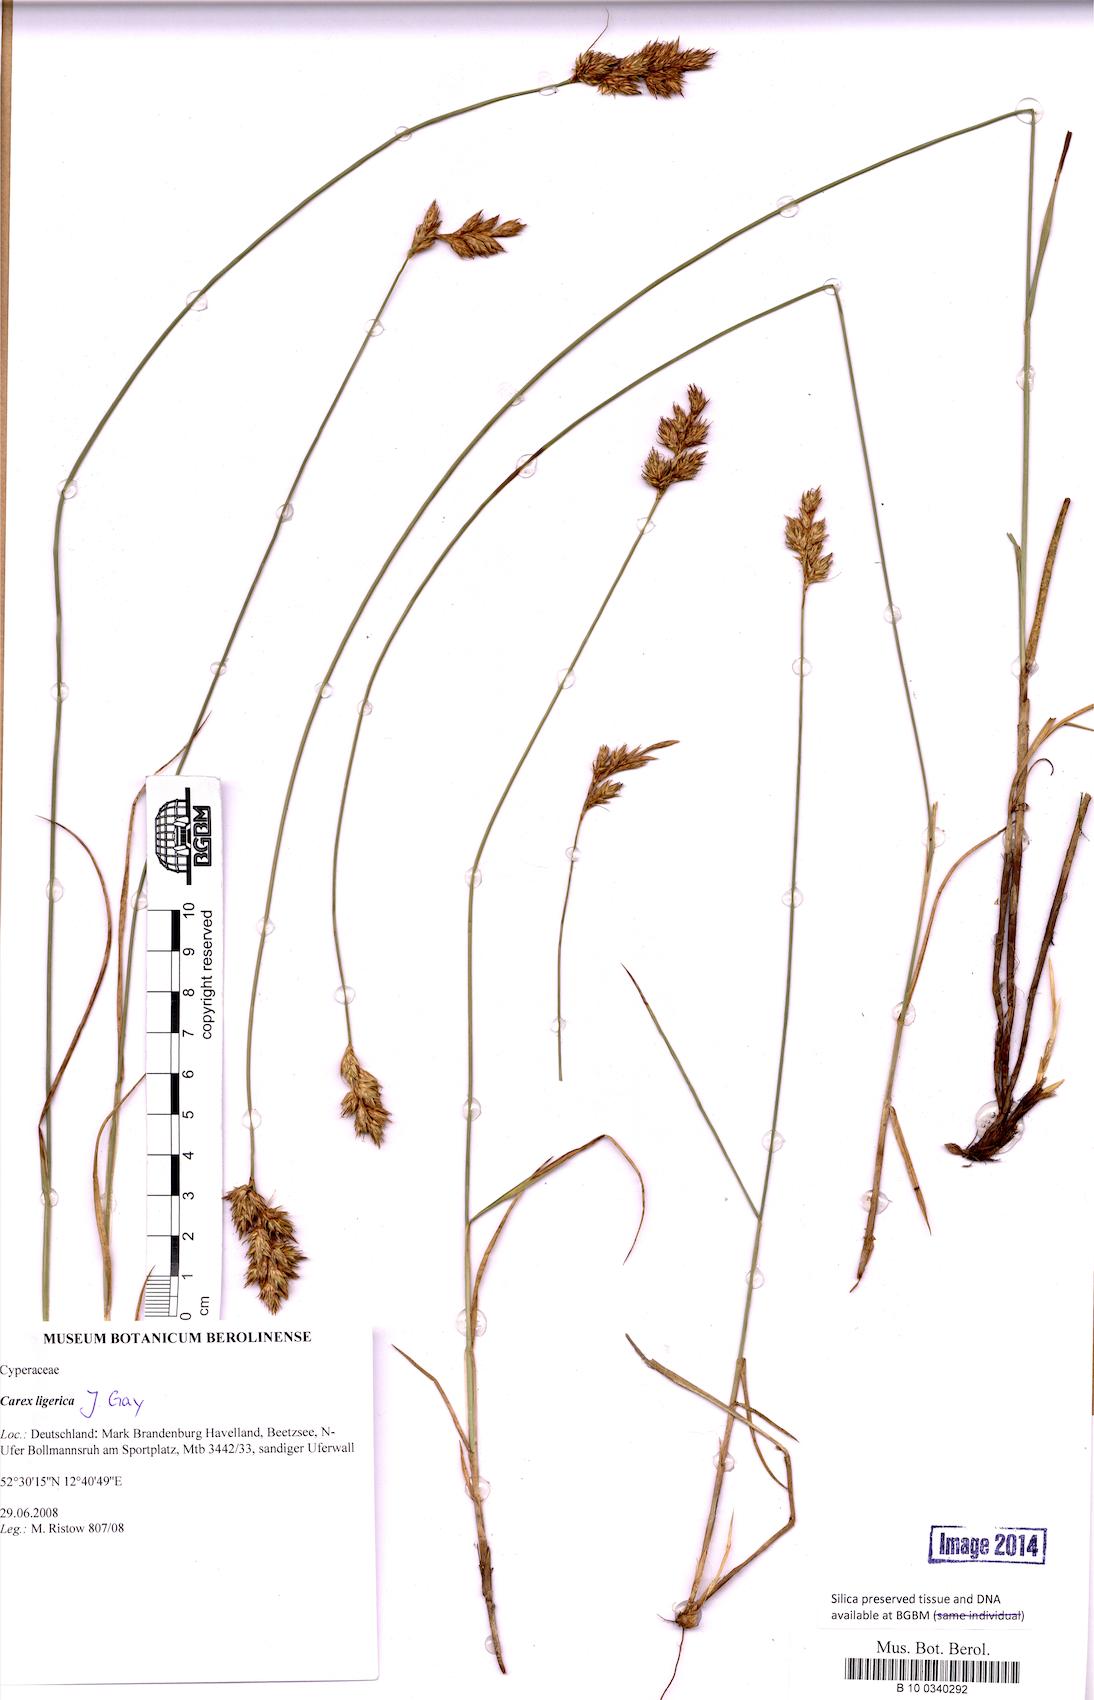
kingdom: Plantae
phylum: Tracheophyta
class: Liliopsida
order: Poales
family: Cyperaceae
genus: Carex
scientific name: Carex colchica
